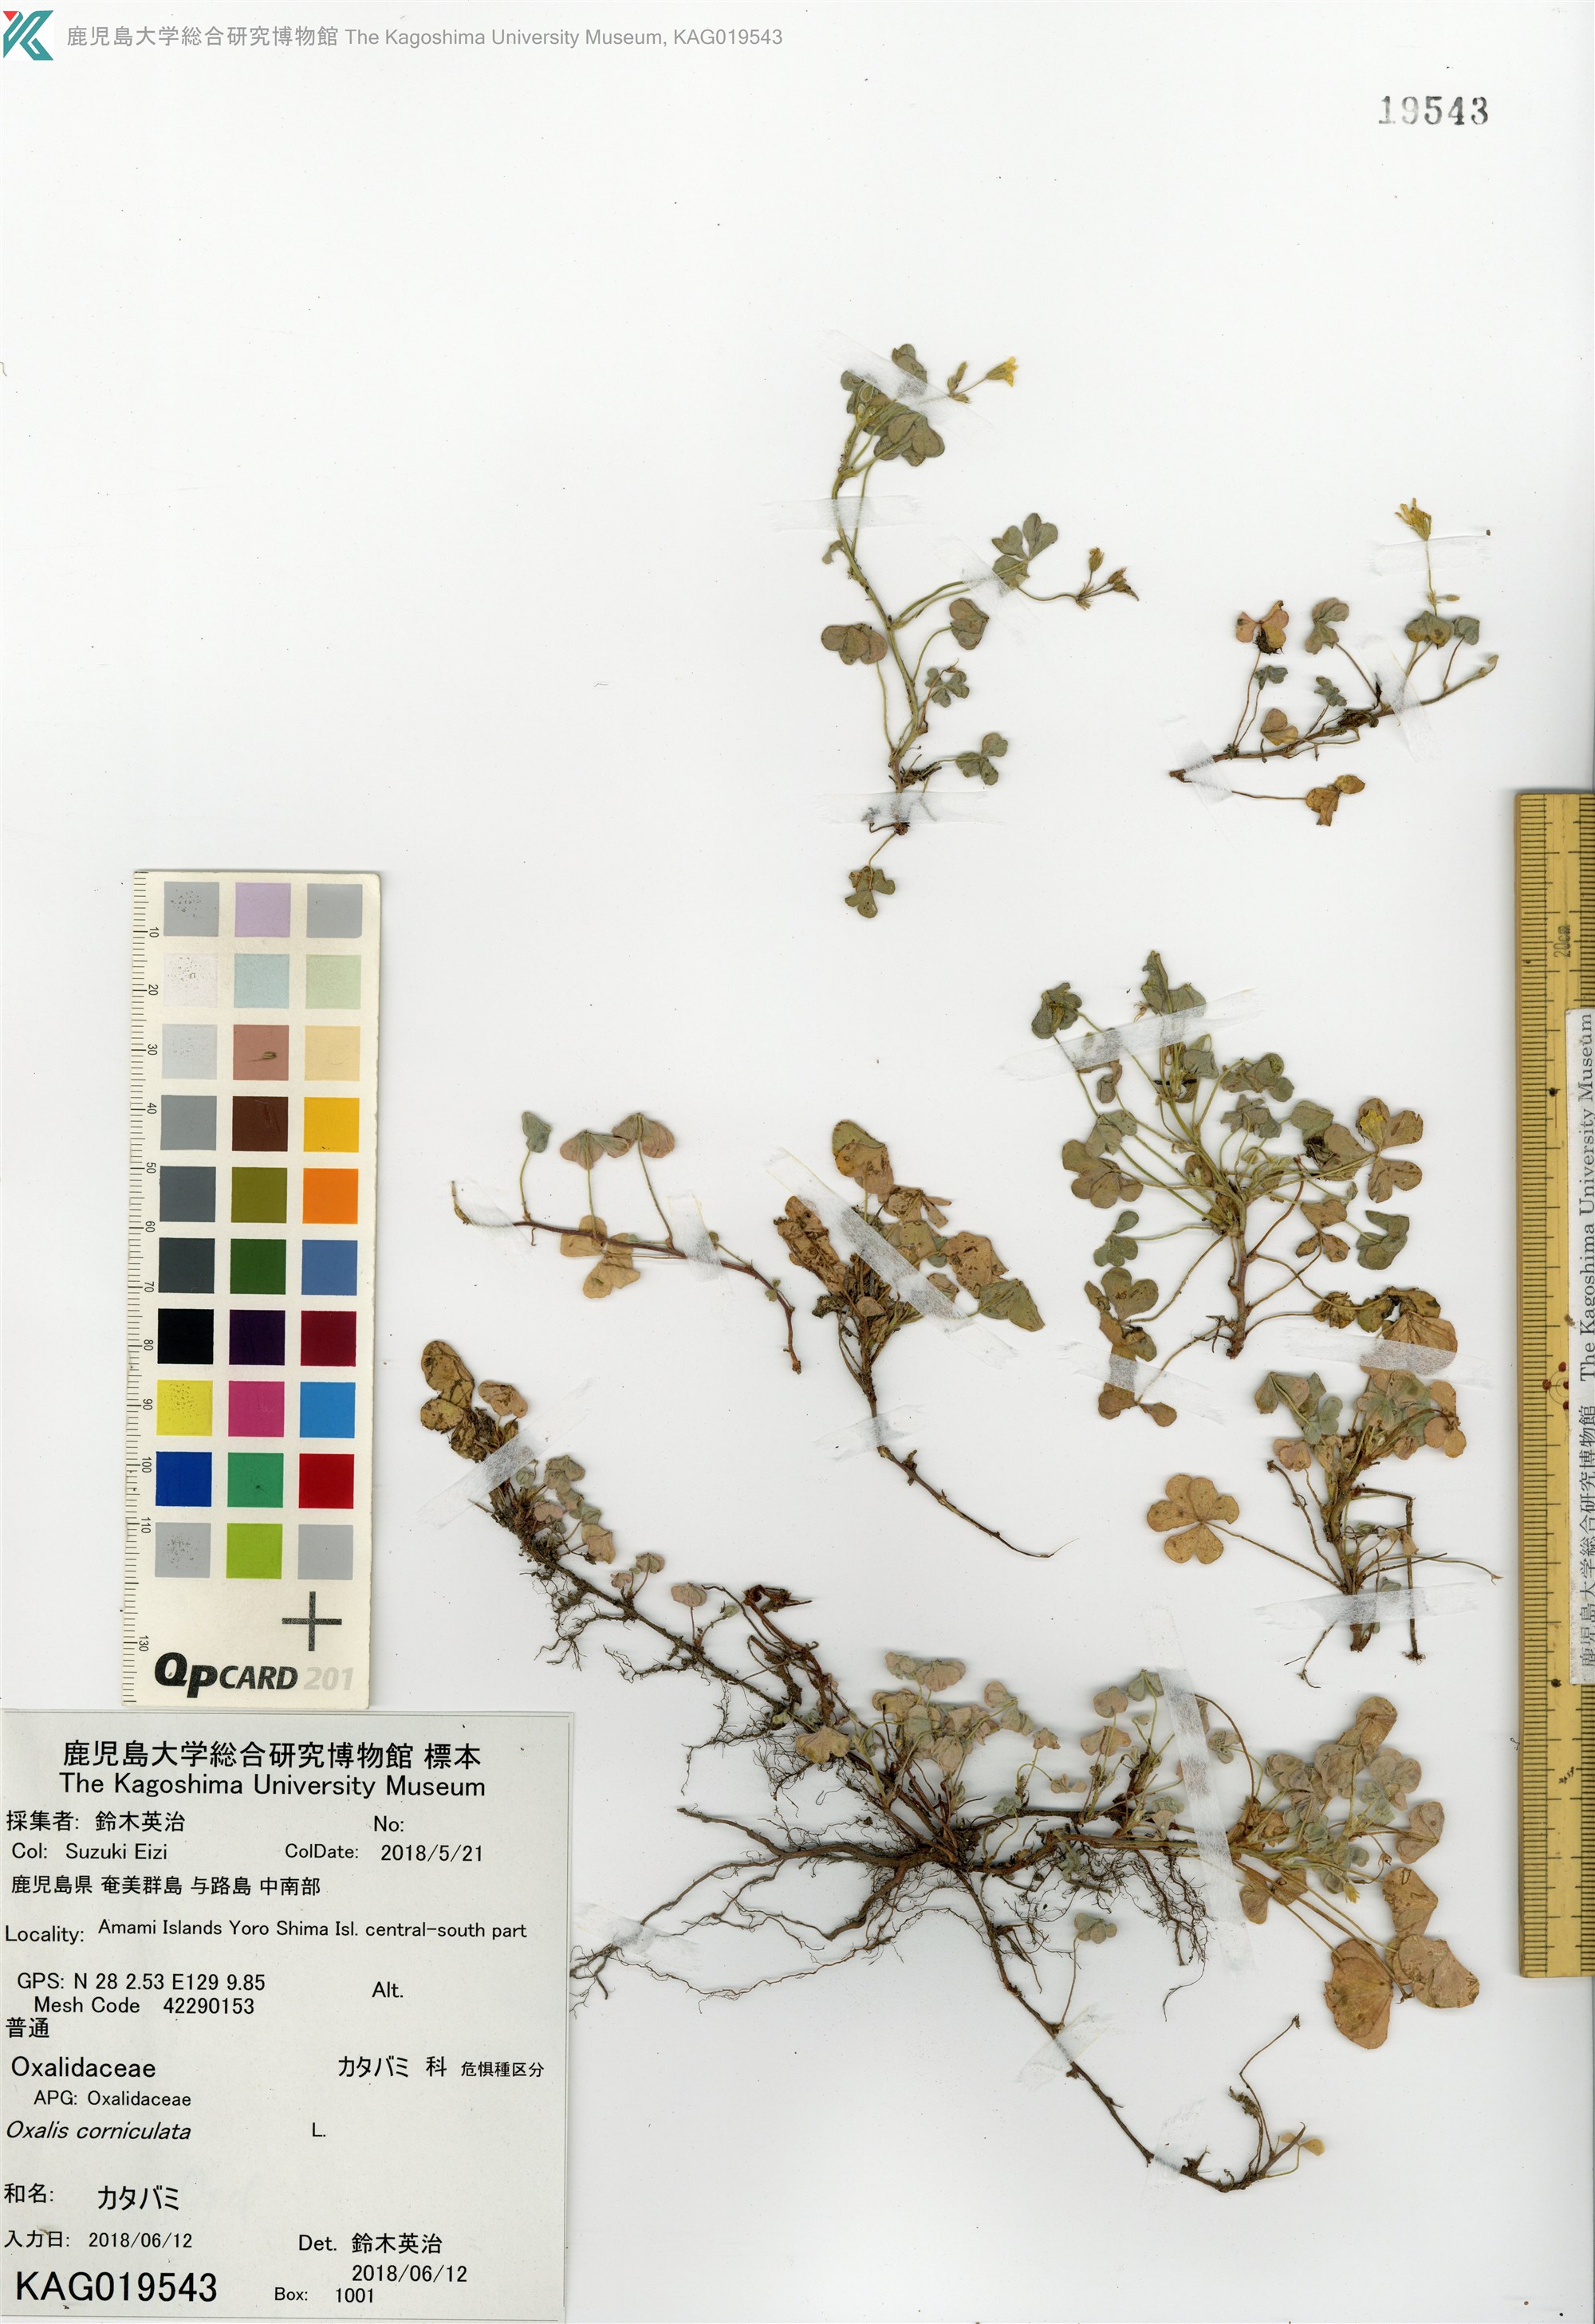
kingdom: Plantae
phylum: Tracheophyta
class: Magnoliopsida
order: Oxalidales
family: Oxalidaceae
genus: Oxalis
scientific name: Oxalis corniculata
